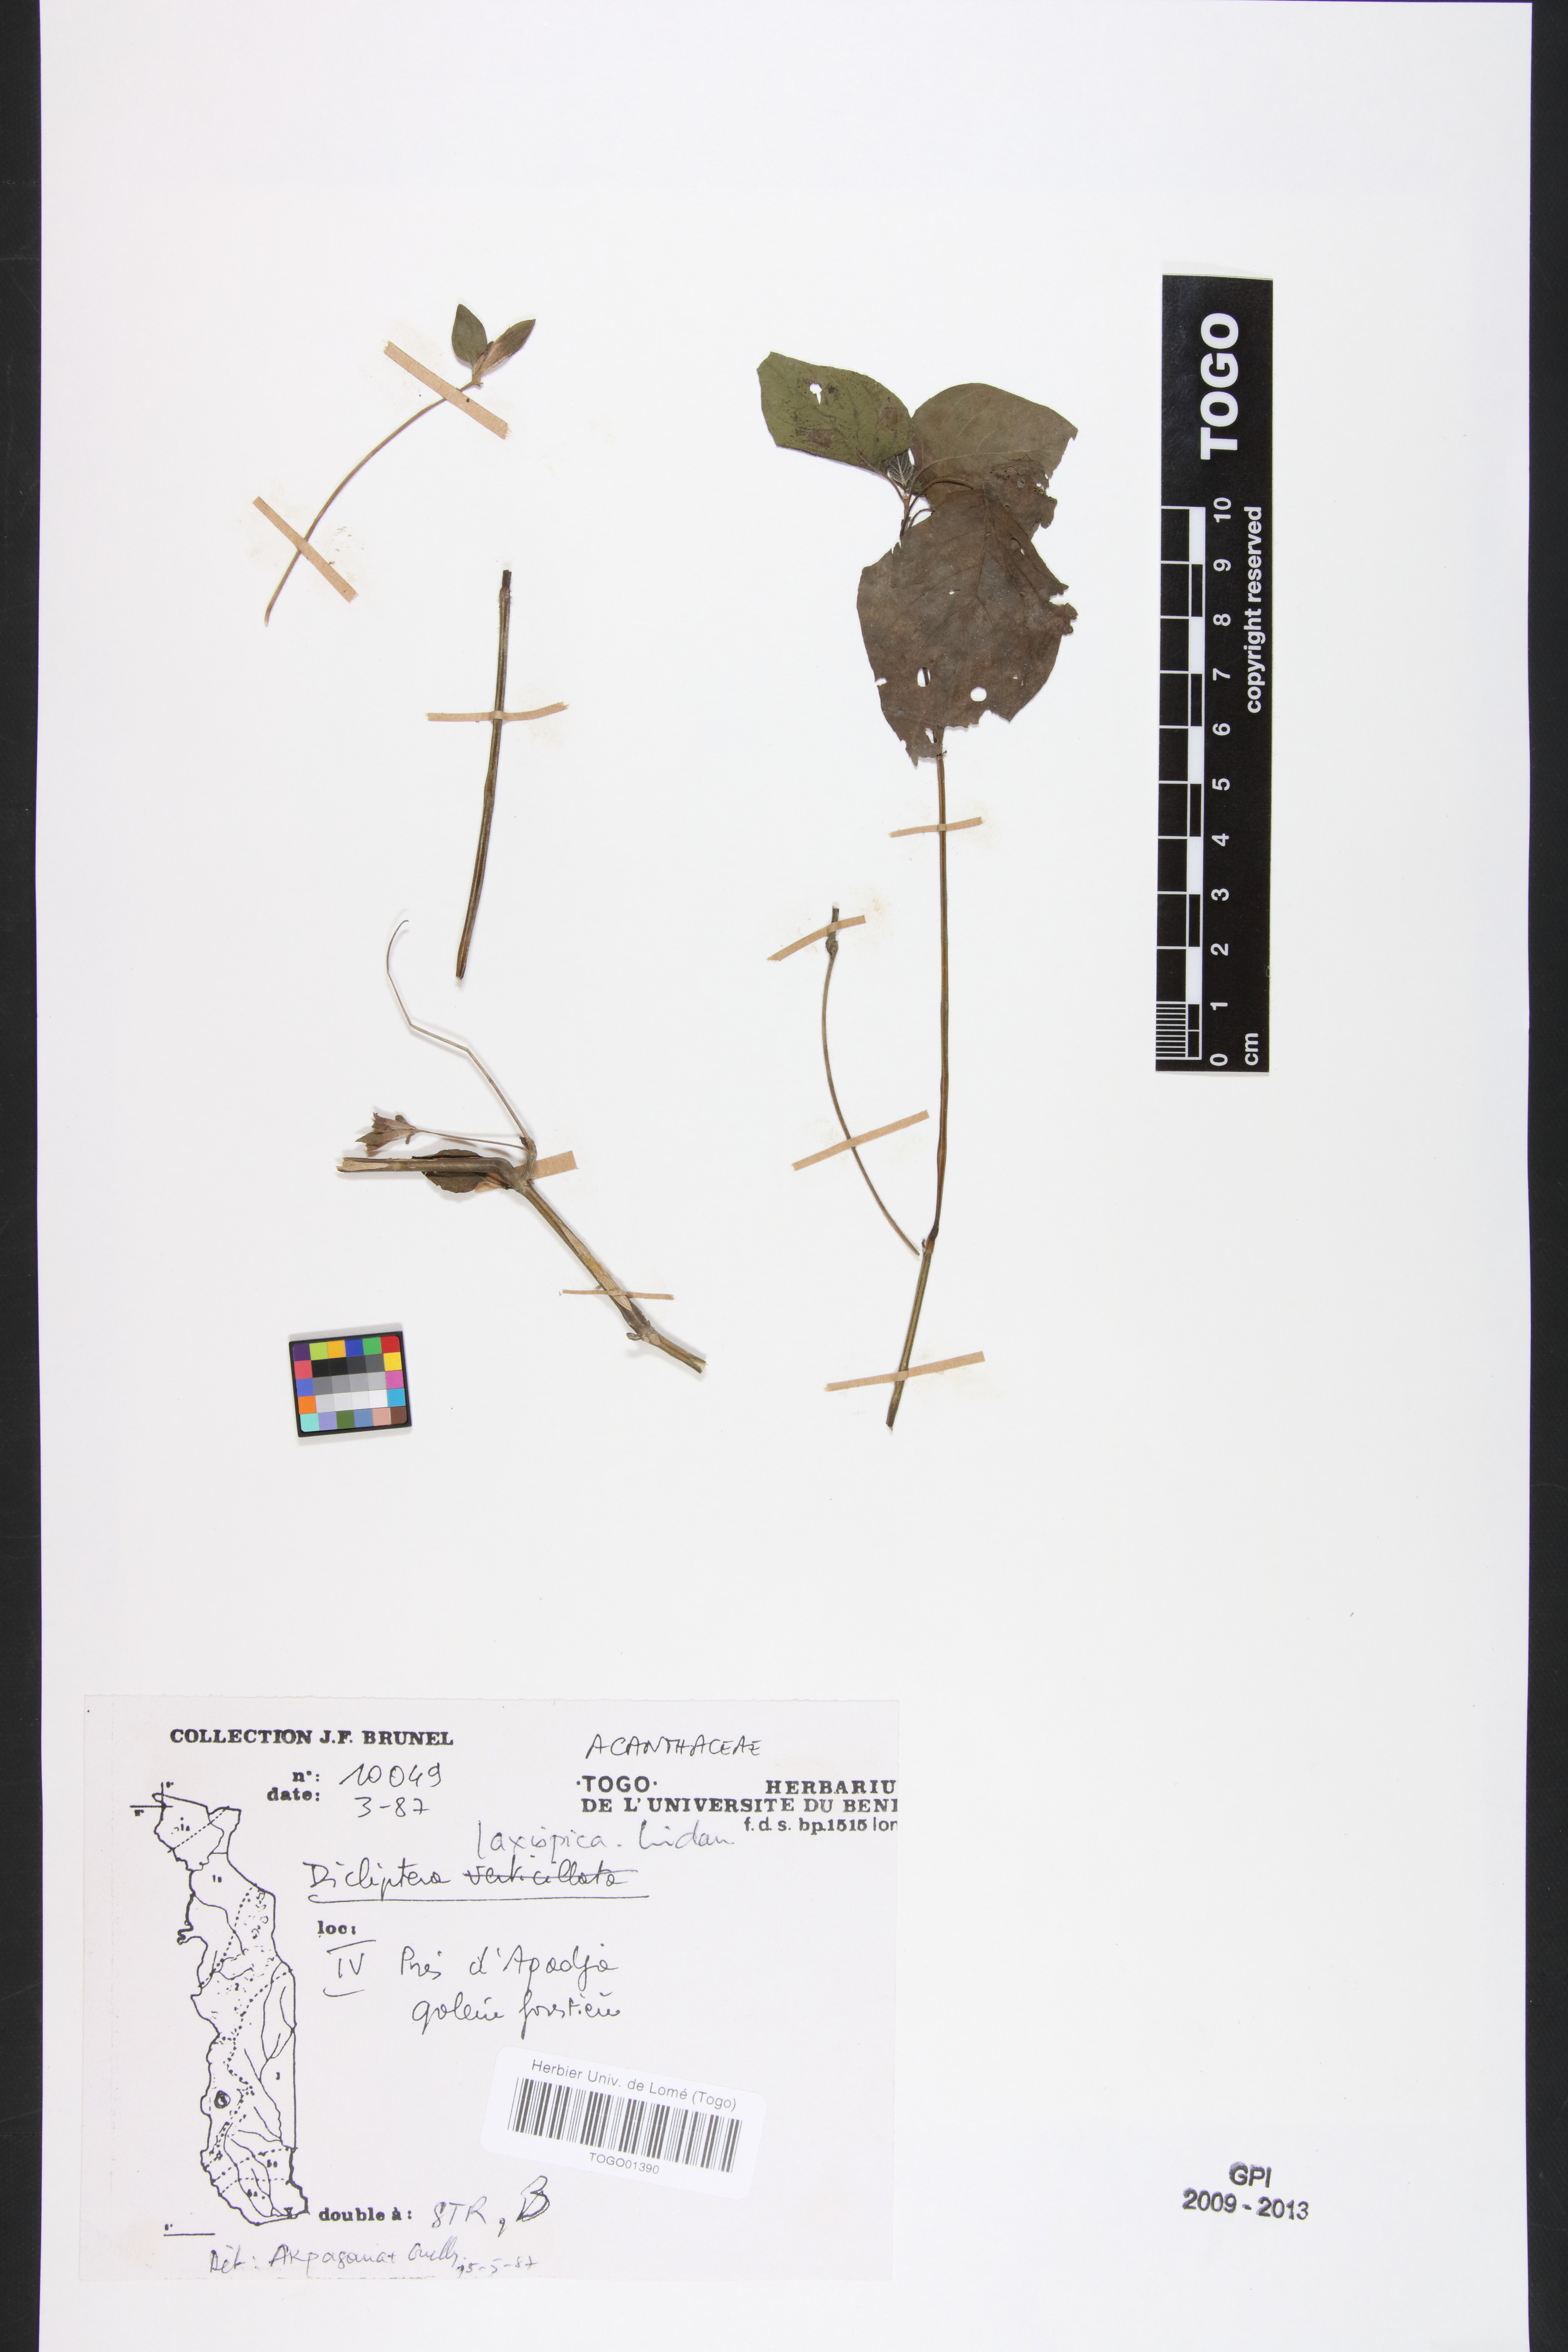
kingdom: Plantae
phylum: Tracheophyta
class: Magnoliopsida
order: Lamiales
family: Acanthaceae
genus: Dicliptera
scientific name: Dicliptera laxispica
